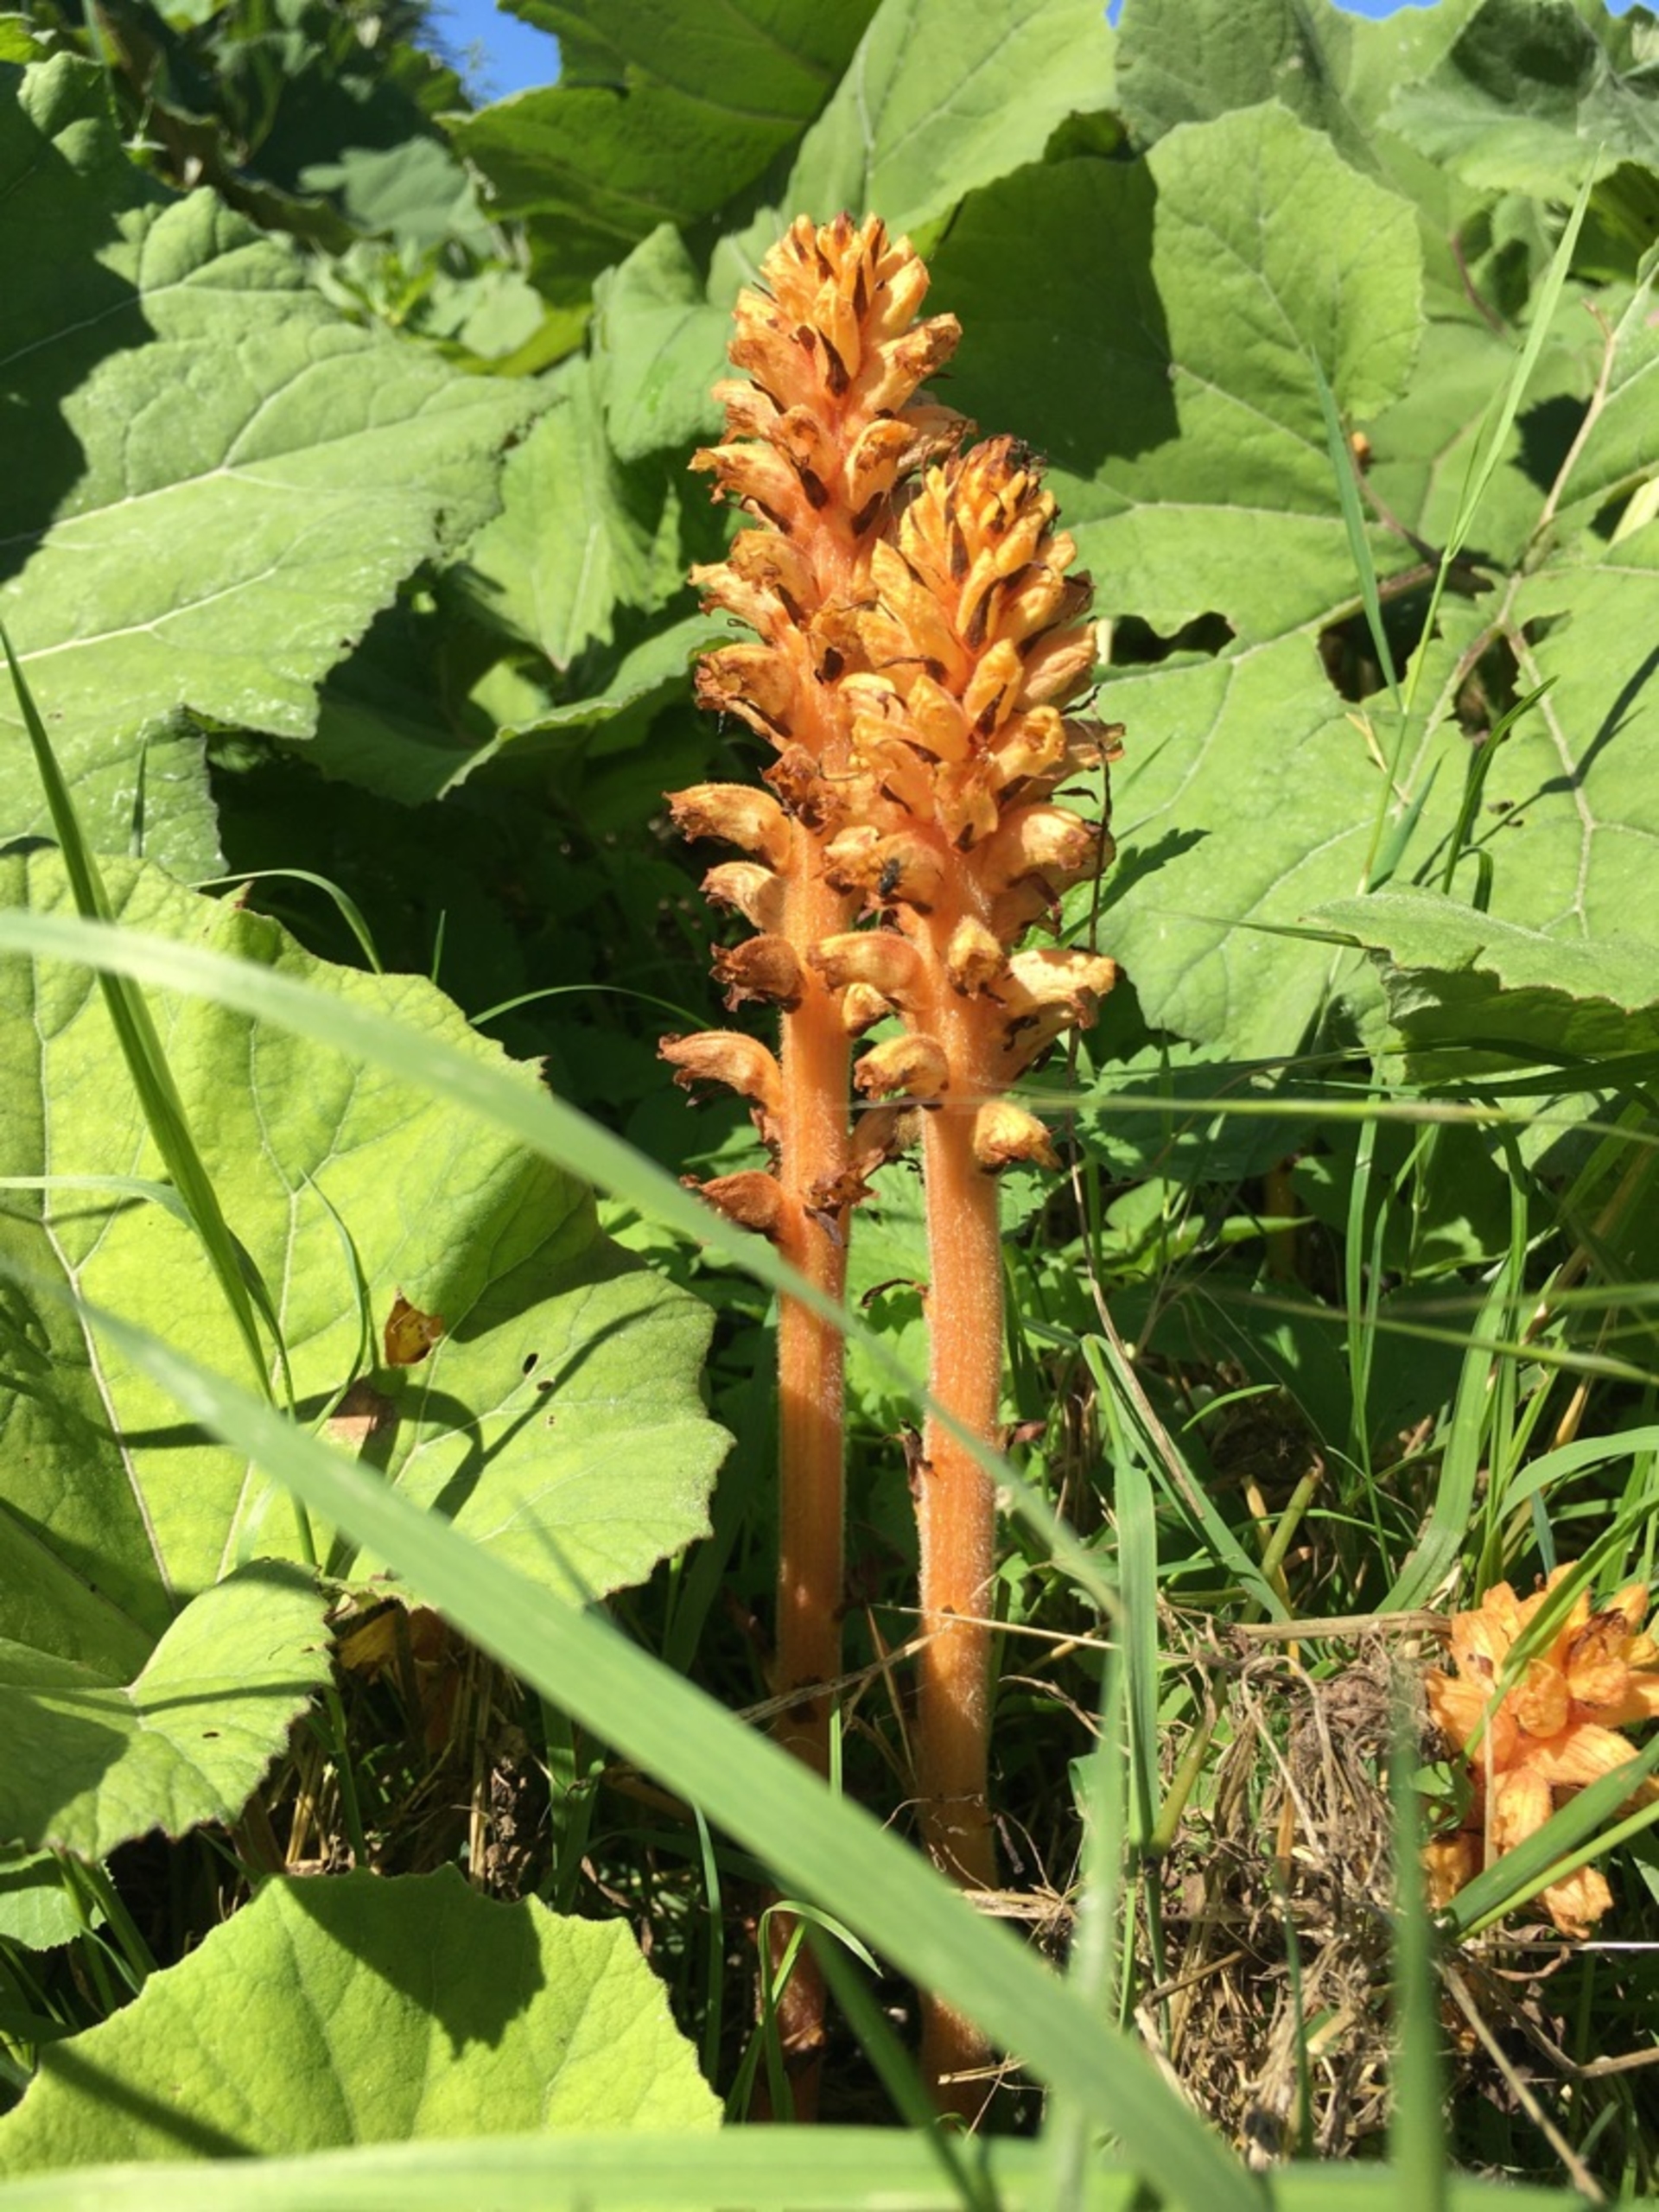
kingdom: Plantae
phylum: Tracheophyta
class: Magnoliopsida
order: Lamiales
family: Orobanchaceae
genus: Orobanche
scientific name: Orobanche flava
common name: Gul gyvelkvæler
